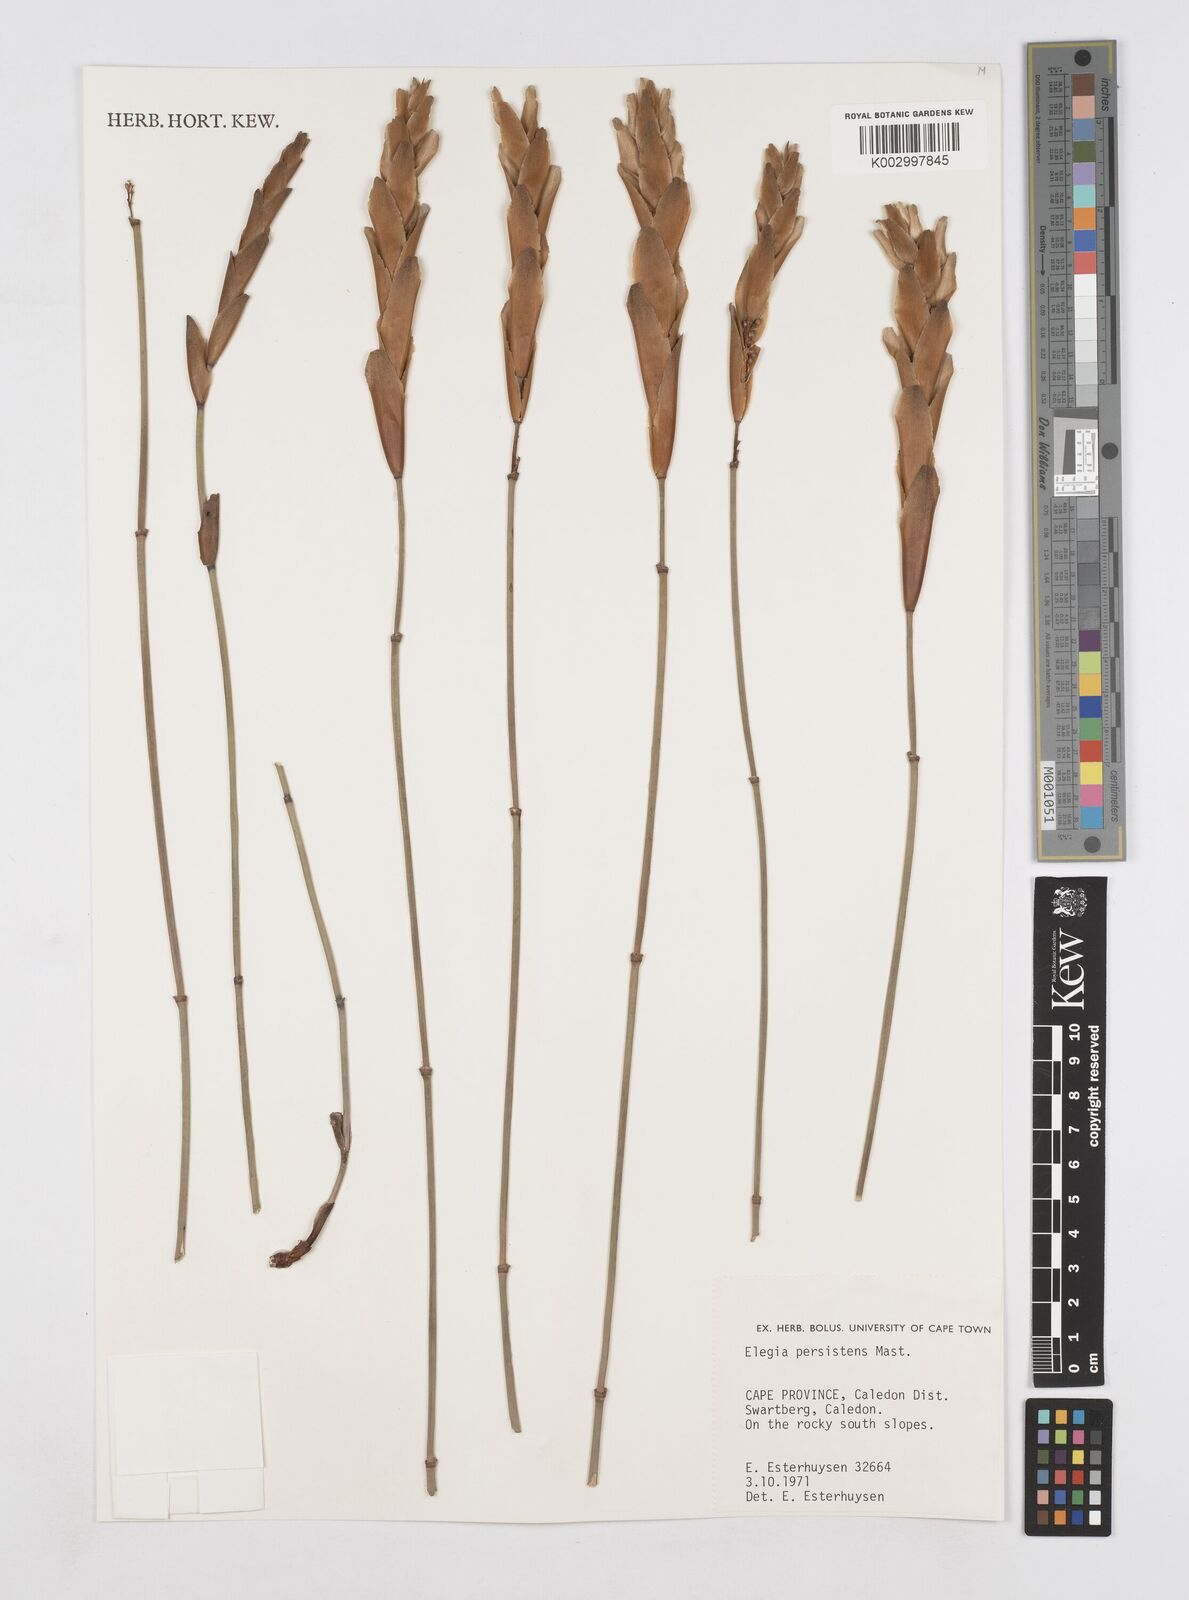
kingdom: Plantae
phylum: Tracheophyta
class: Liliopsida
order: Poales
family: Restionaceae
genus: Elegia
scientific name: Elegia persistens
